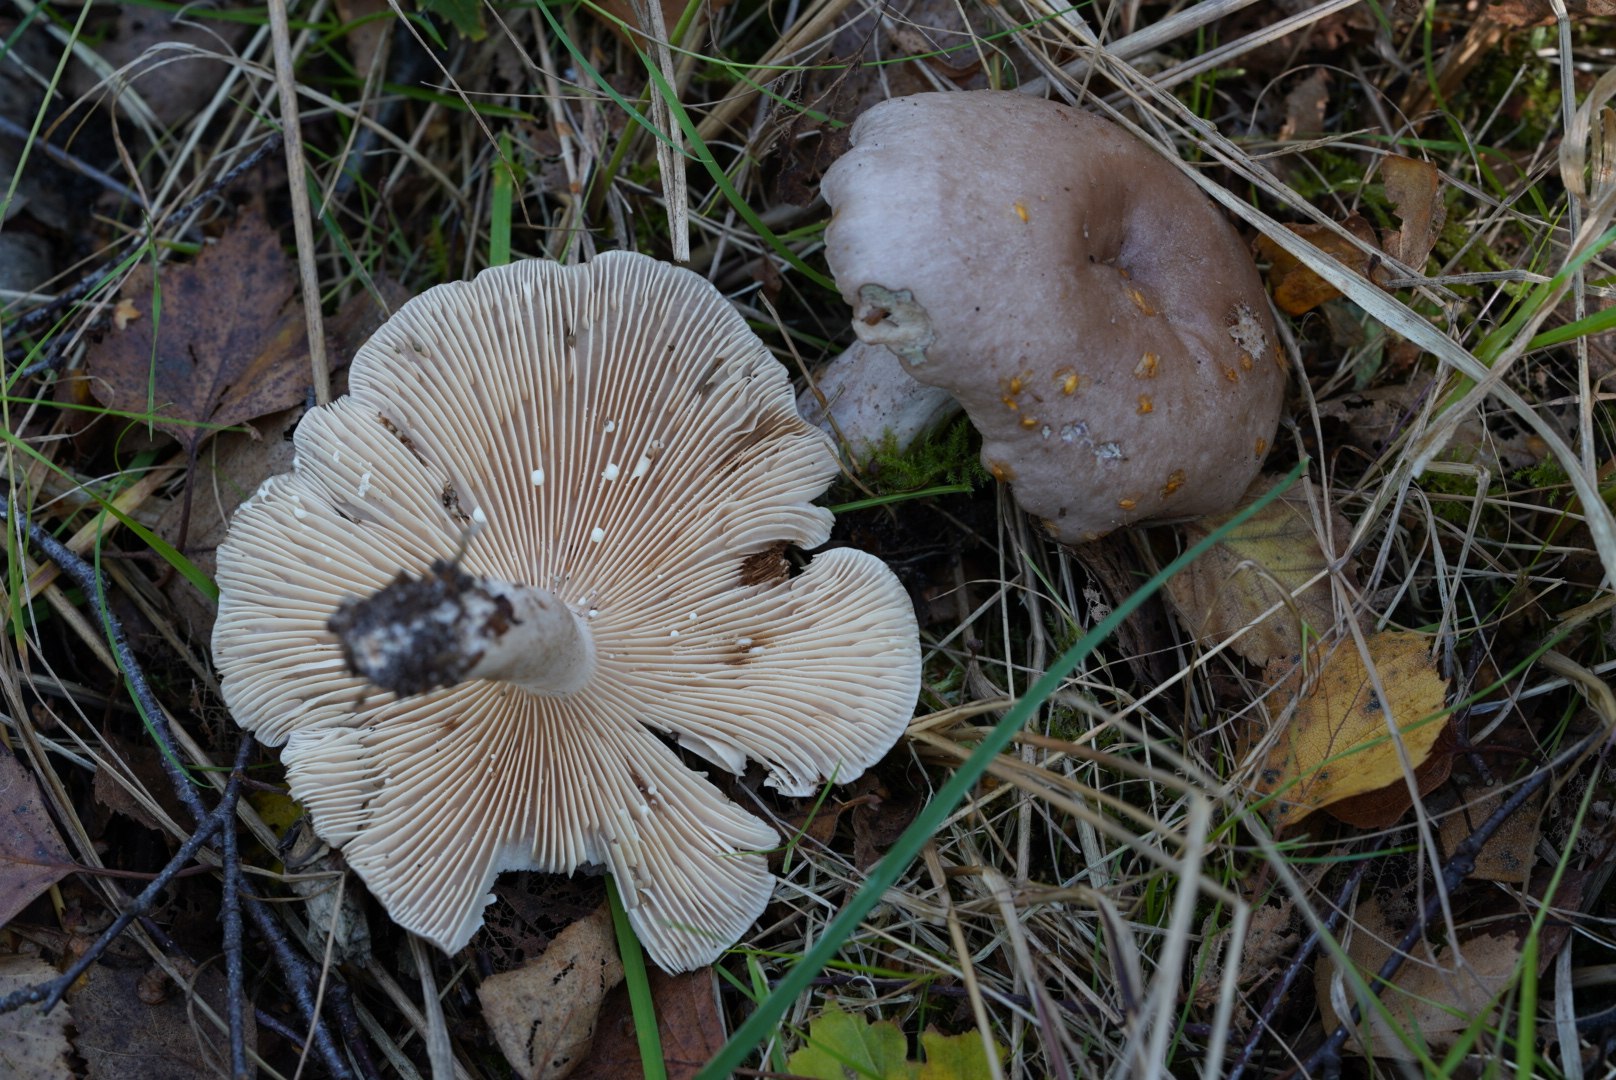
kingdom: Fungi
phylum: Basidiomycota
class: Agaricomycetes
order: Russulales
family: Russulaceae
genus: Lactarius
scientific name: Lactarius vietus
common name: violetgrå mælkehat
